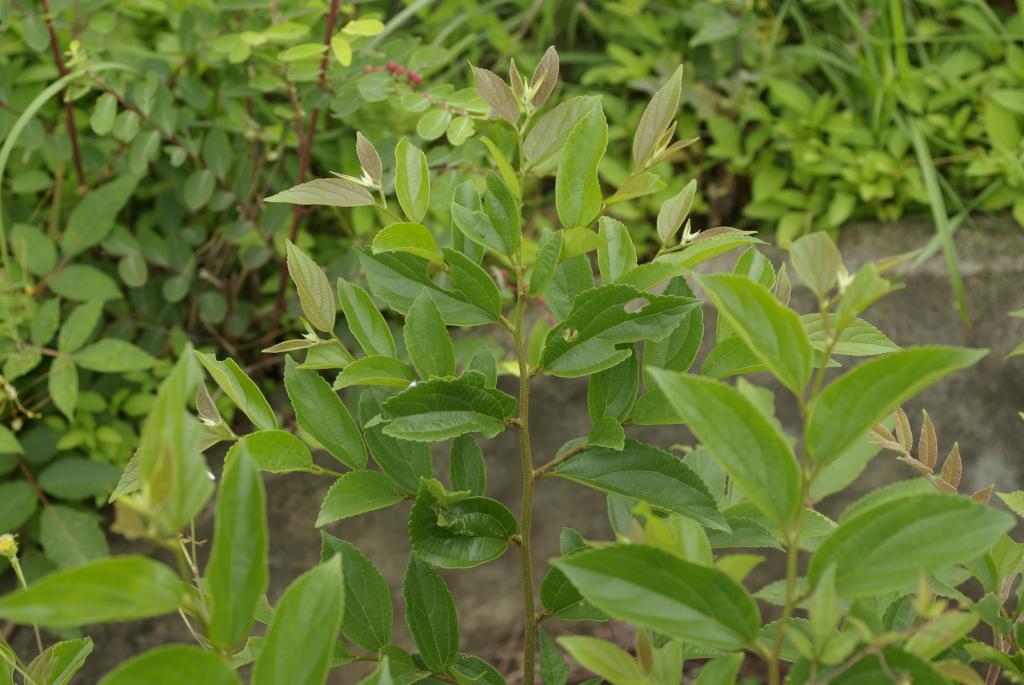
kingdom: Plantae
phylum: Tracheophyta
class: Magnoliopsida
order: Rosales
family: Cannabaceae
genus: Celtis
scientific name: Celtis sinensis
